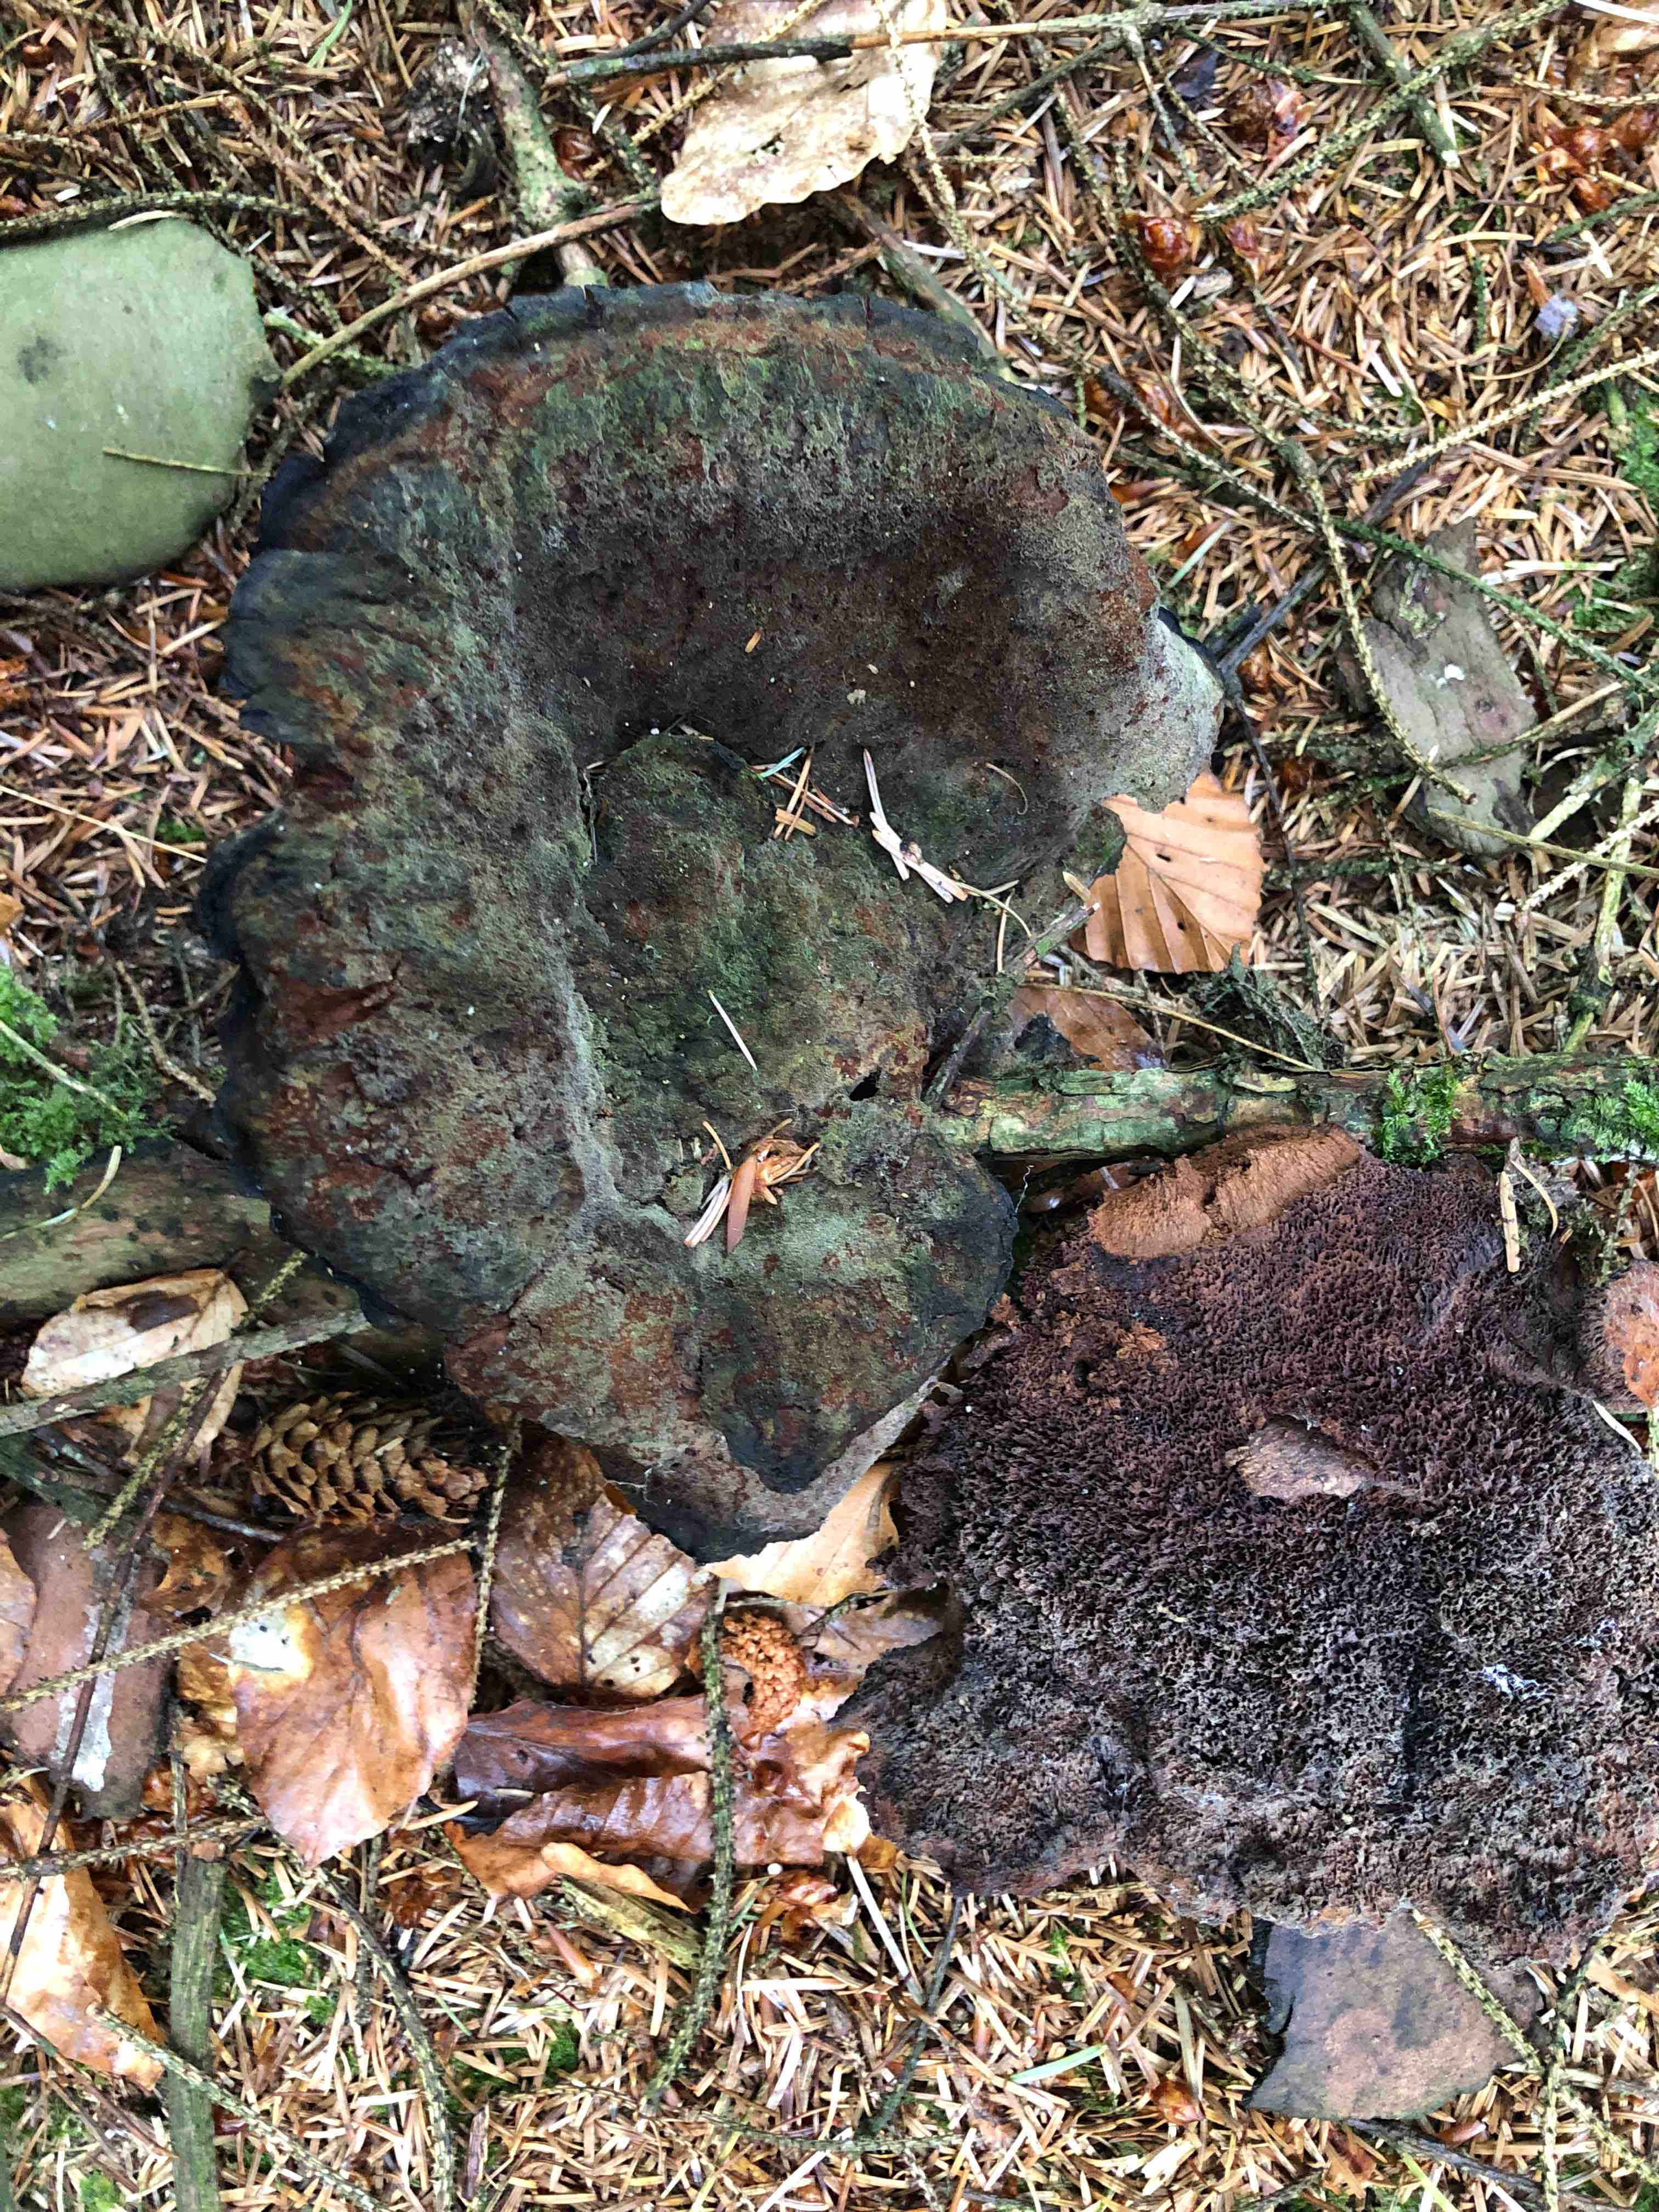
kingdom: Fungi
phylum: Basidiomycota
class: Agaricomycetes
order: Polyporales
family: Laetiporaceae
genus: Phaeolus
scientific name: Phaeolus schweinitzii
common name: brunporesvamp
